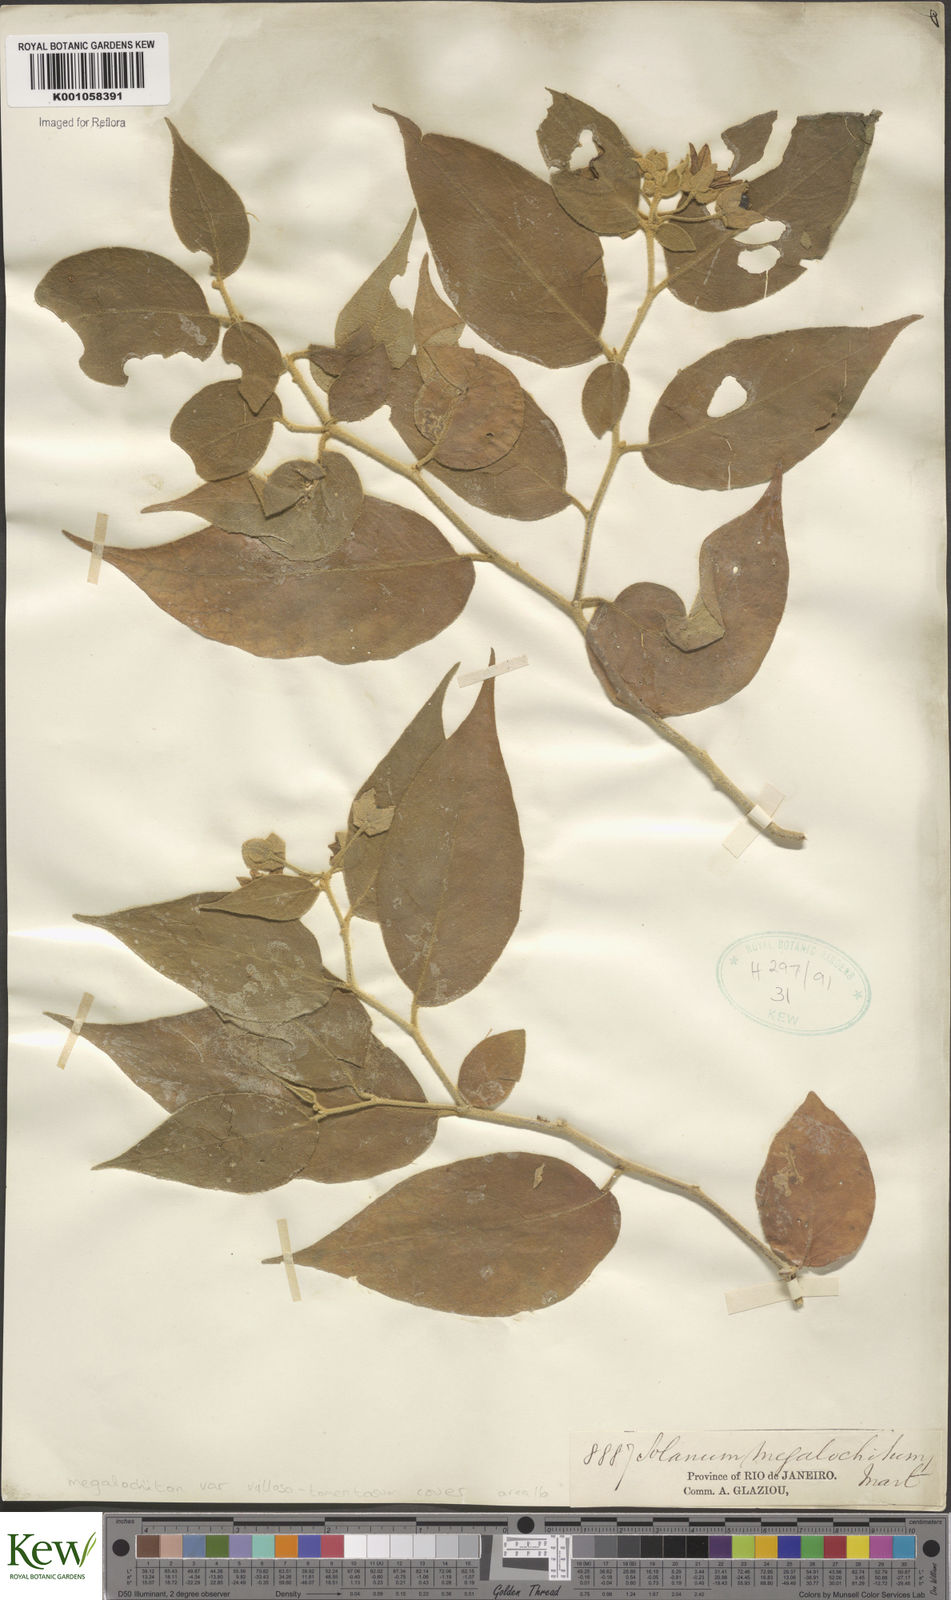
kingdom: Plantae
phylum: Tracheophyta
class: Magnoliopsida
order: Solanales
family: Solanaceae
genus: Solanum
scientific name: Solanum didymum
